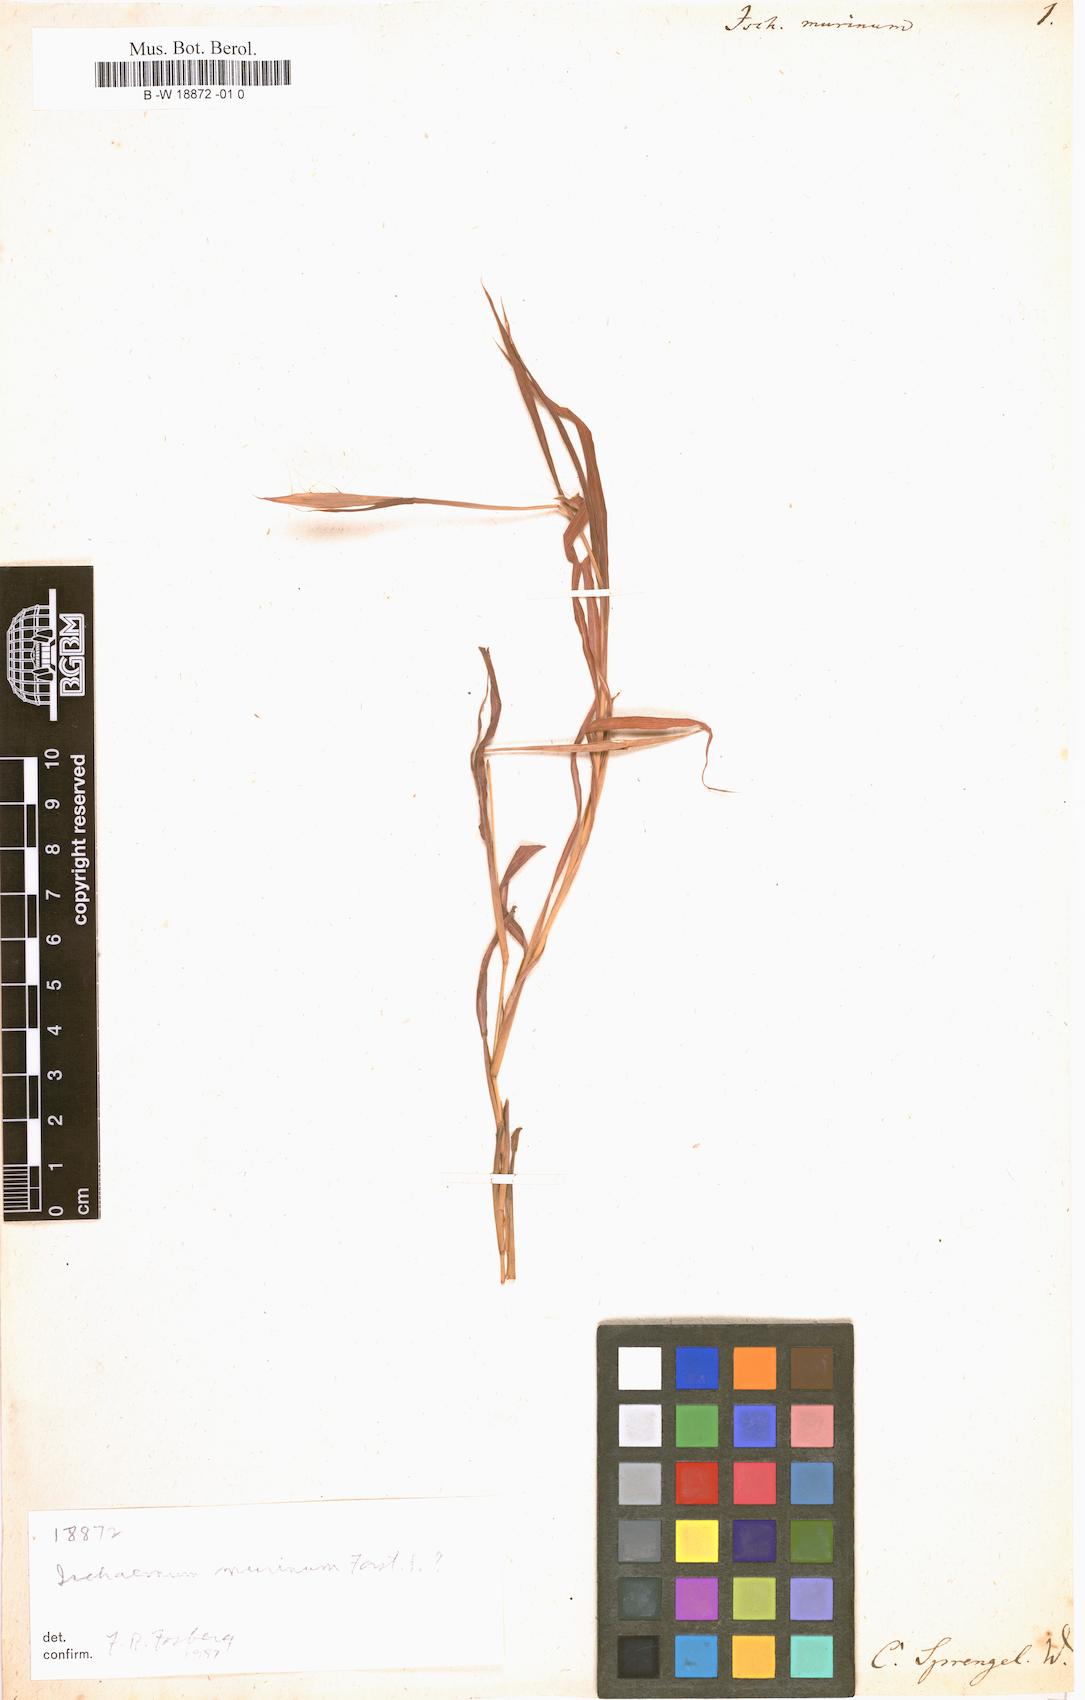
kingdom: Plantae
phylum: Tracheophyta
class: Liliopsida
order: Poales
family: Poaceae
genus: Ischaemum
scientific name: Ischaemum murinum
